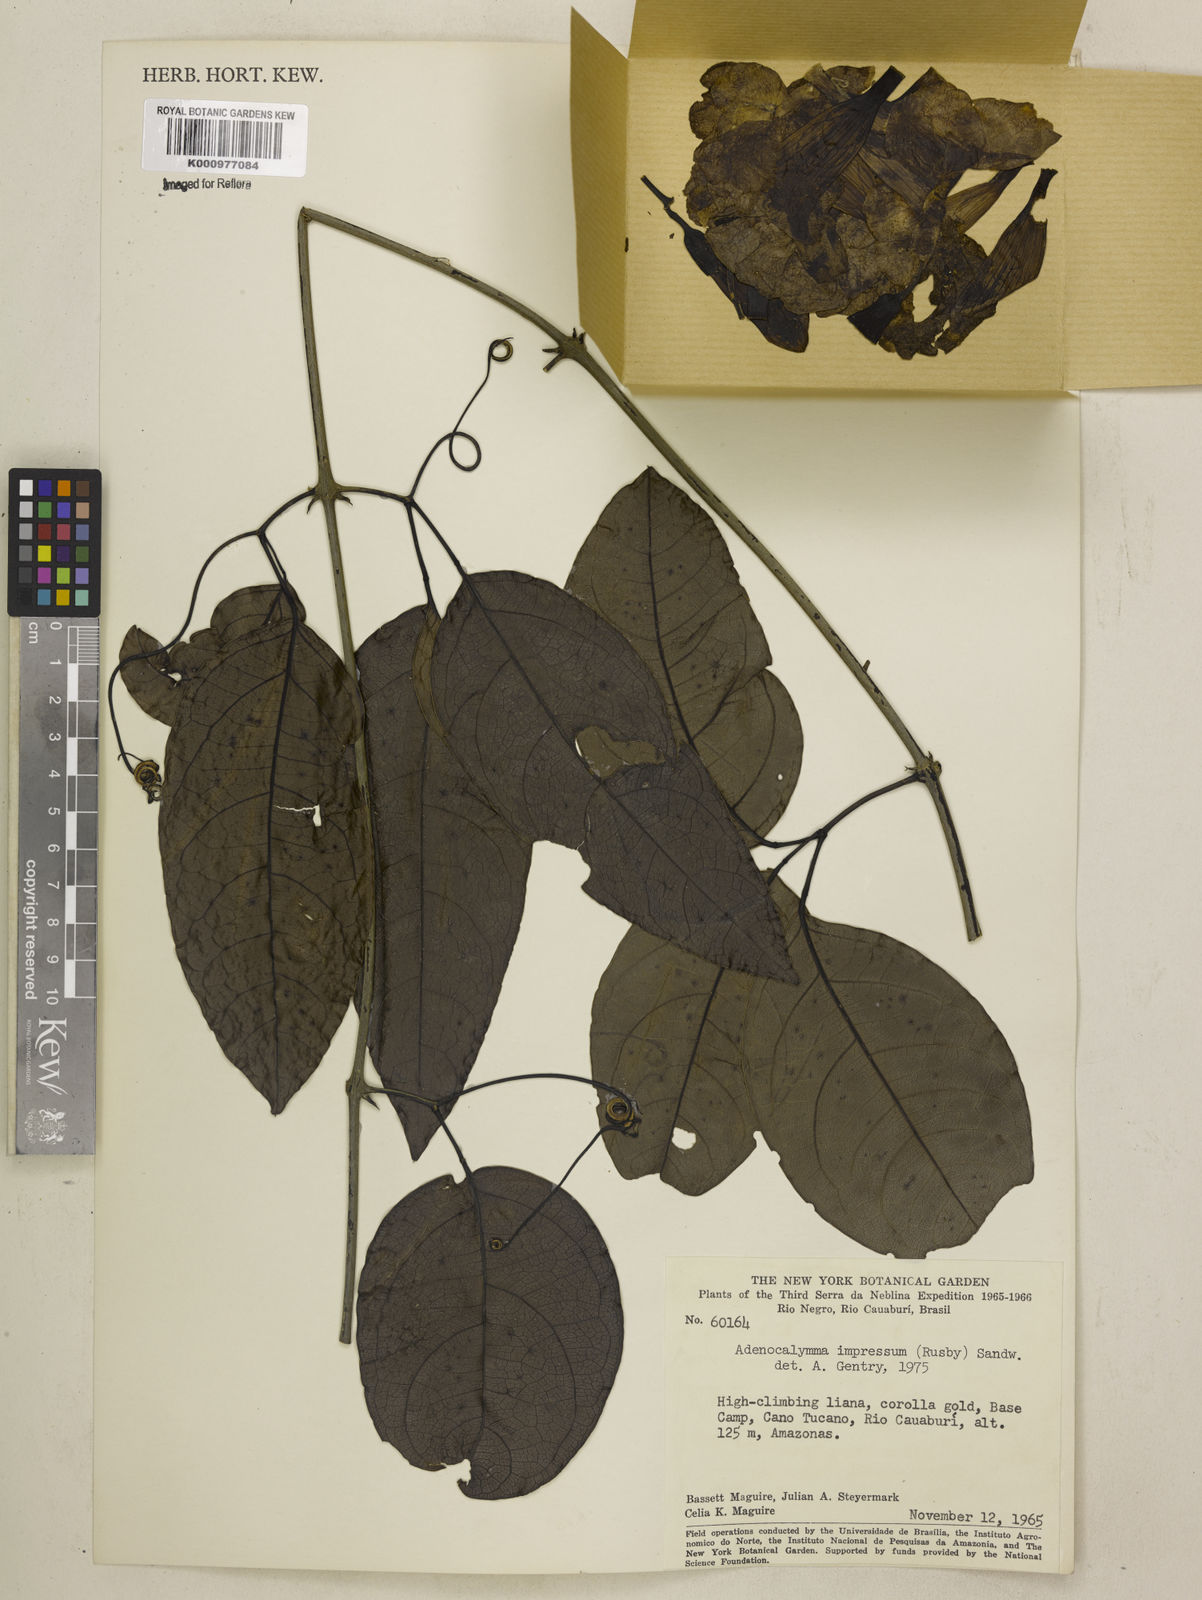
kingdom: Plantae
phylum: Tracheophyta
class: Magnoliopsida
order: Lamiales
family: Bignoniaceae
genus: Adenocalymma
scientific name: Adenocalymma impressum
